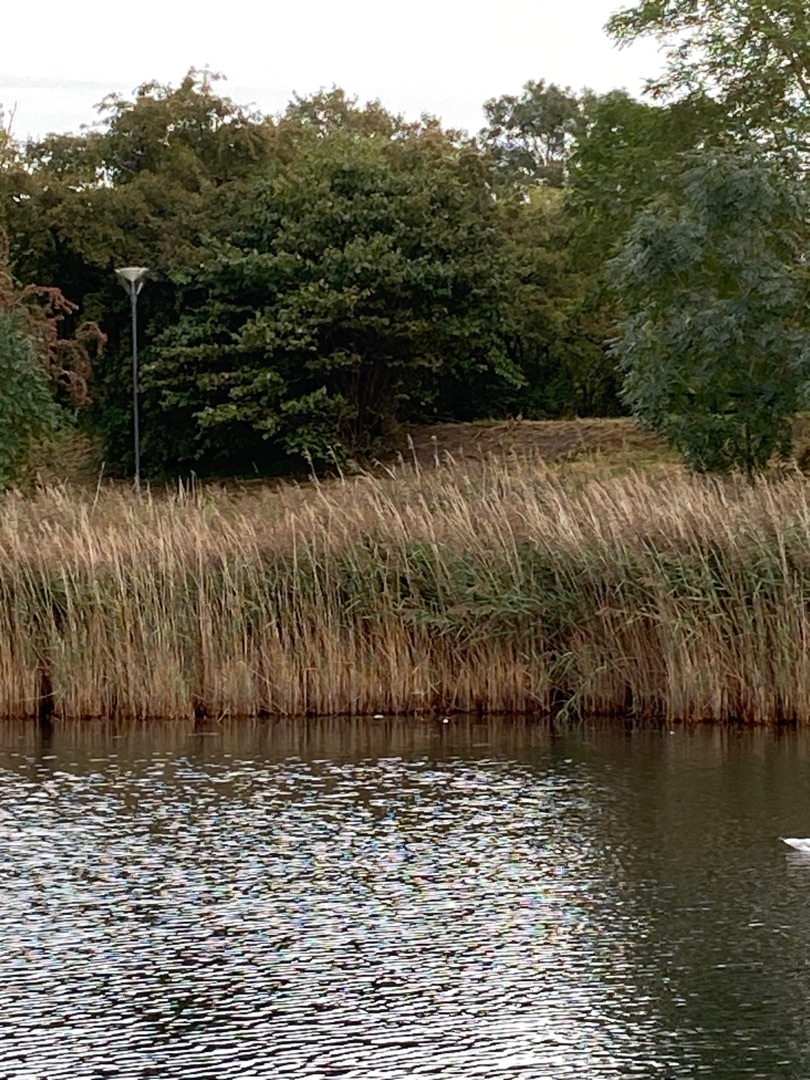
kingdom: Plantae
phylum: Tracheophyta
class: Liliopsida
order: Poales
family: Poaceae
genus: Phragmites
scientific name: Phragmites australis
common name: Tagrør
